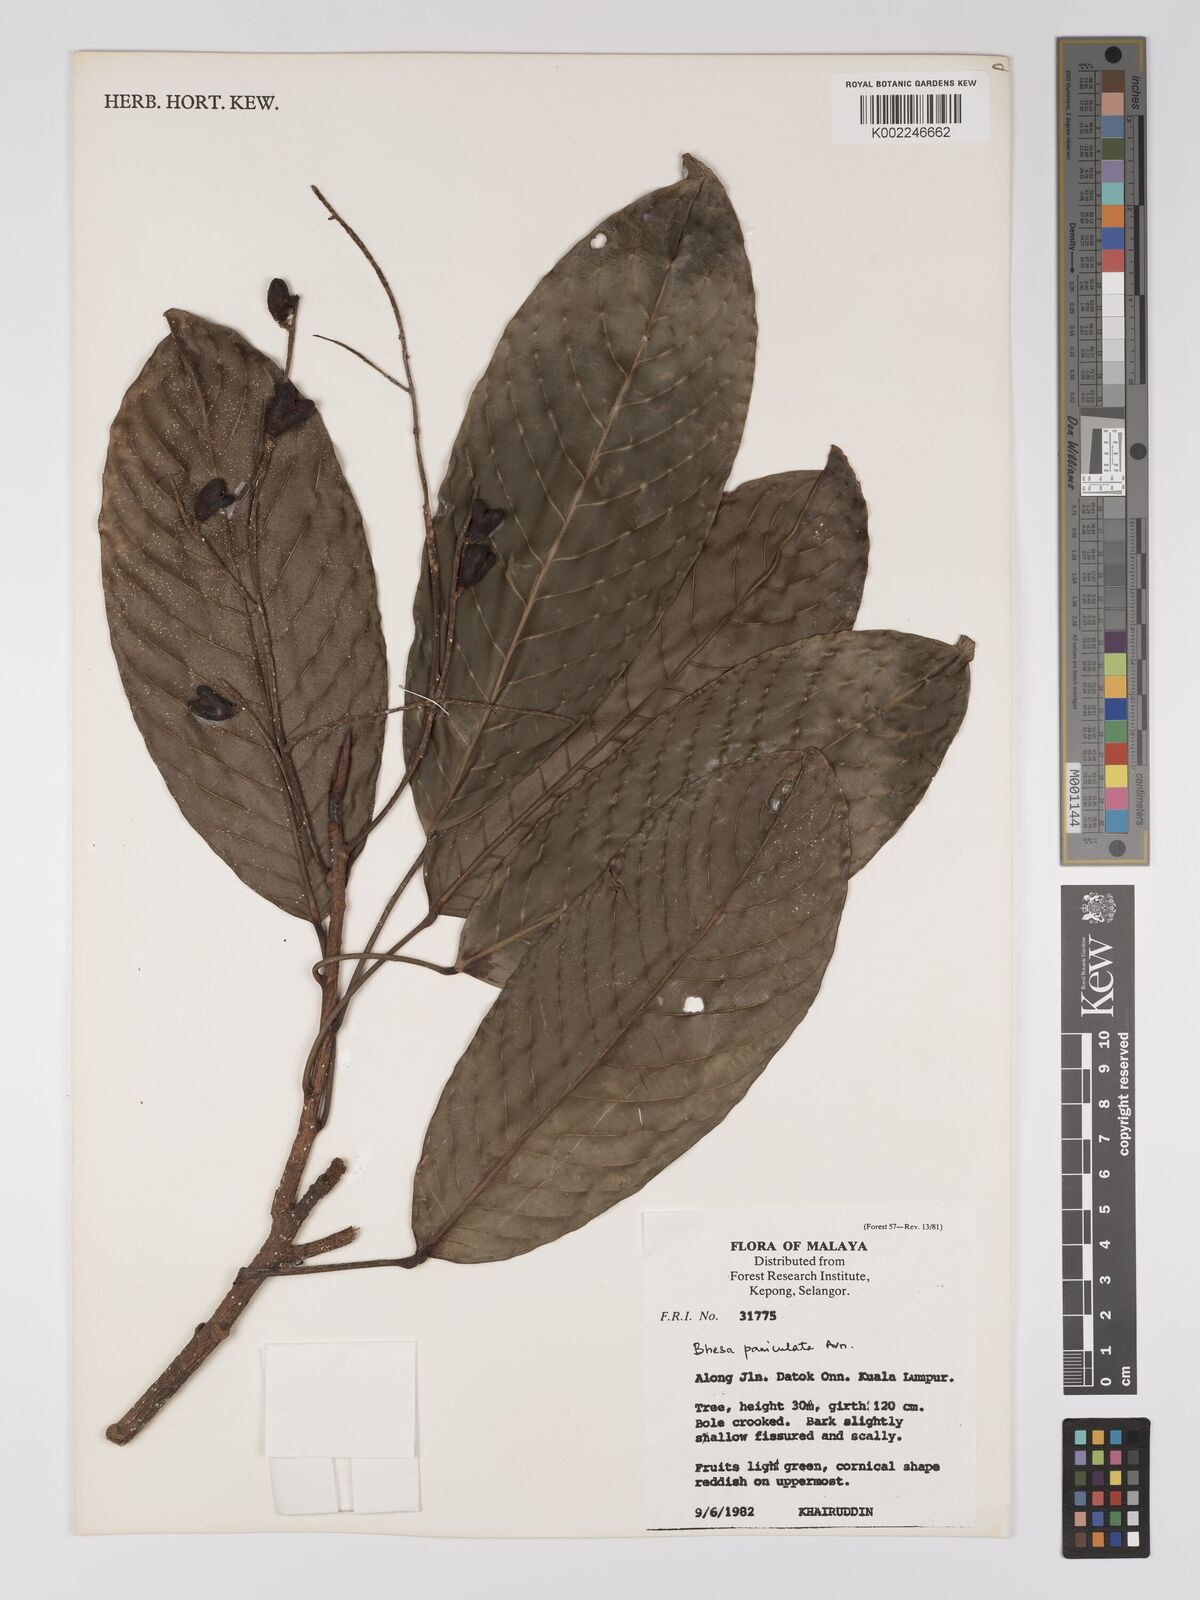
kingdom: Plantae
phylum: Tracheophyta
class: Magnoliopsida
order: Malpighiales
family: Centroplacaceae
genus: Bhesa
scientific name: Bhesa paniculata
